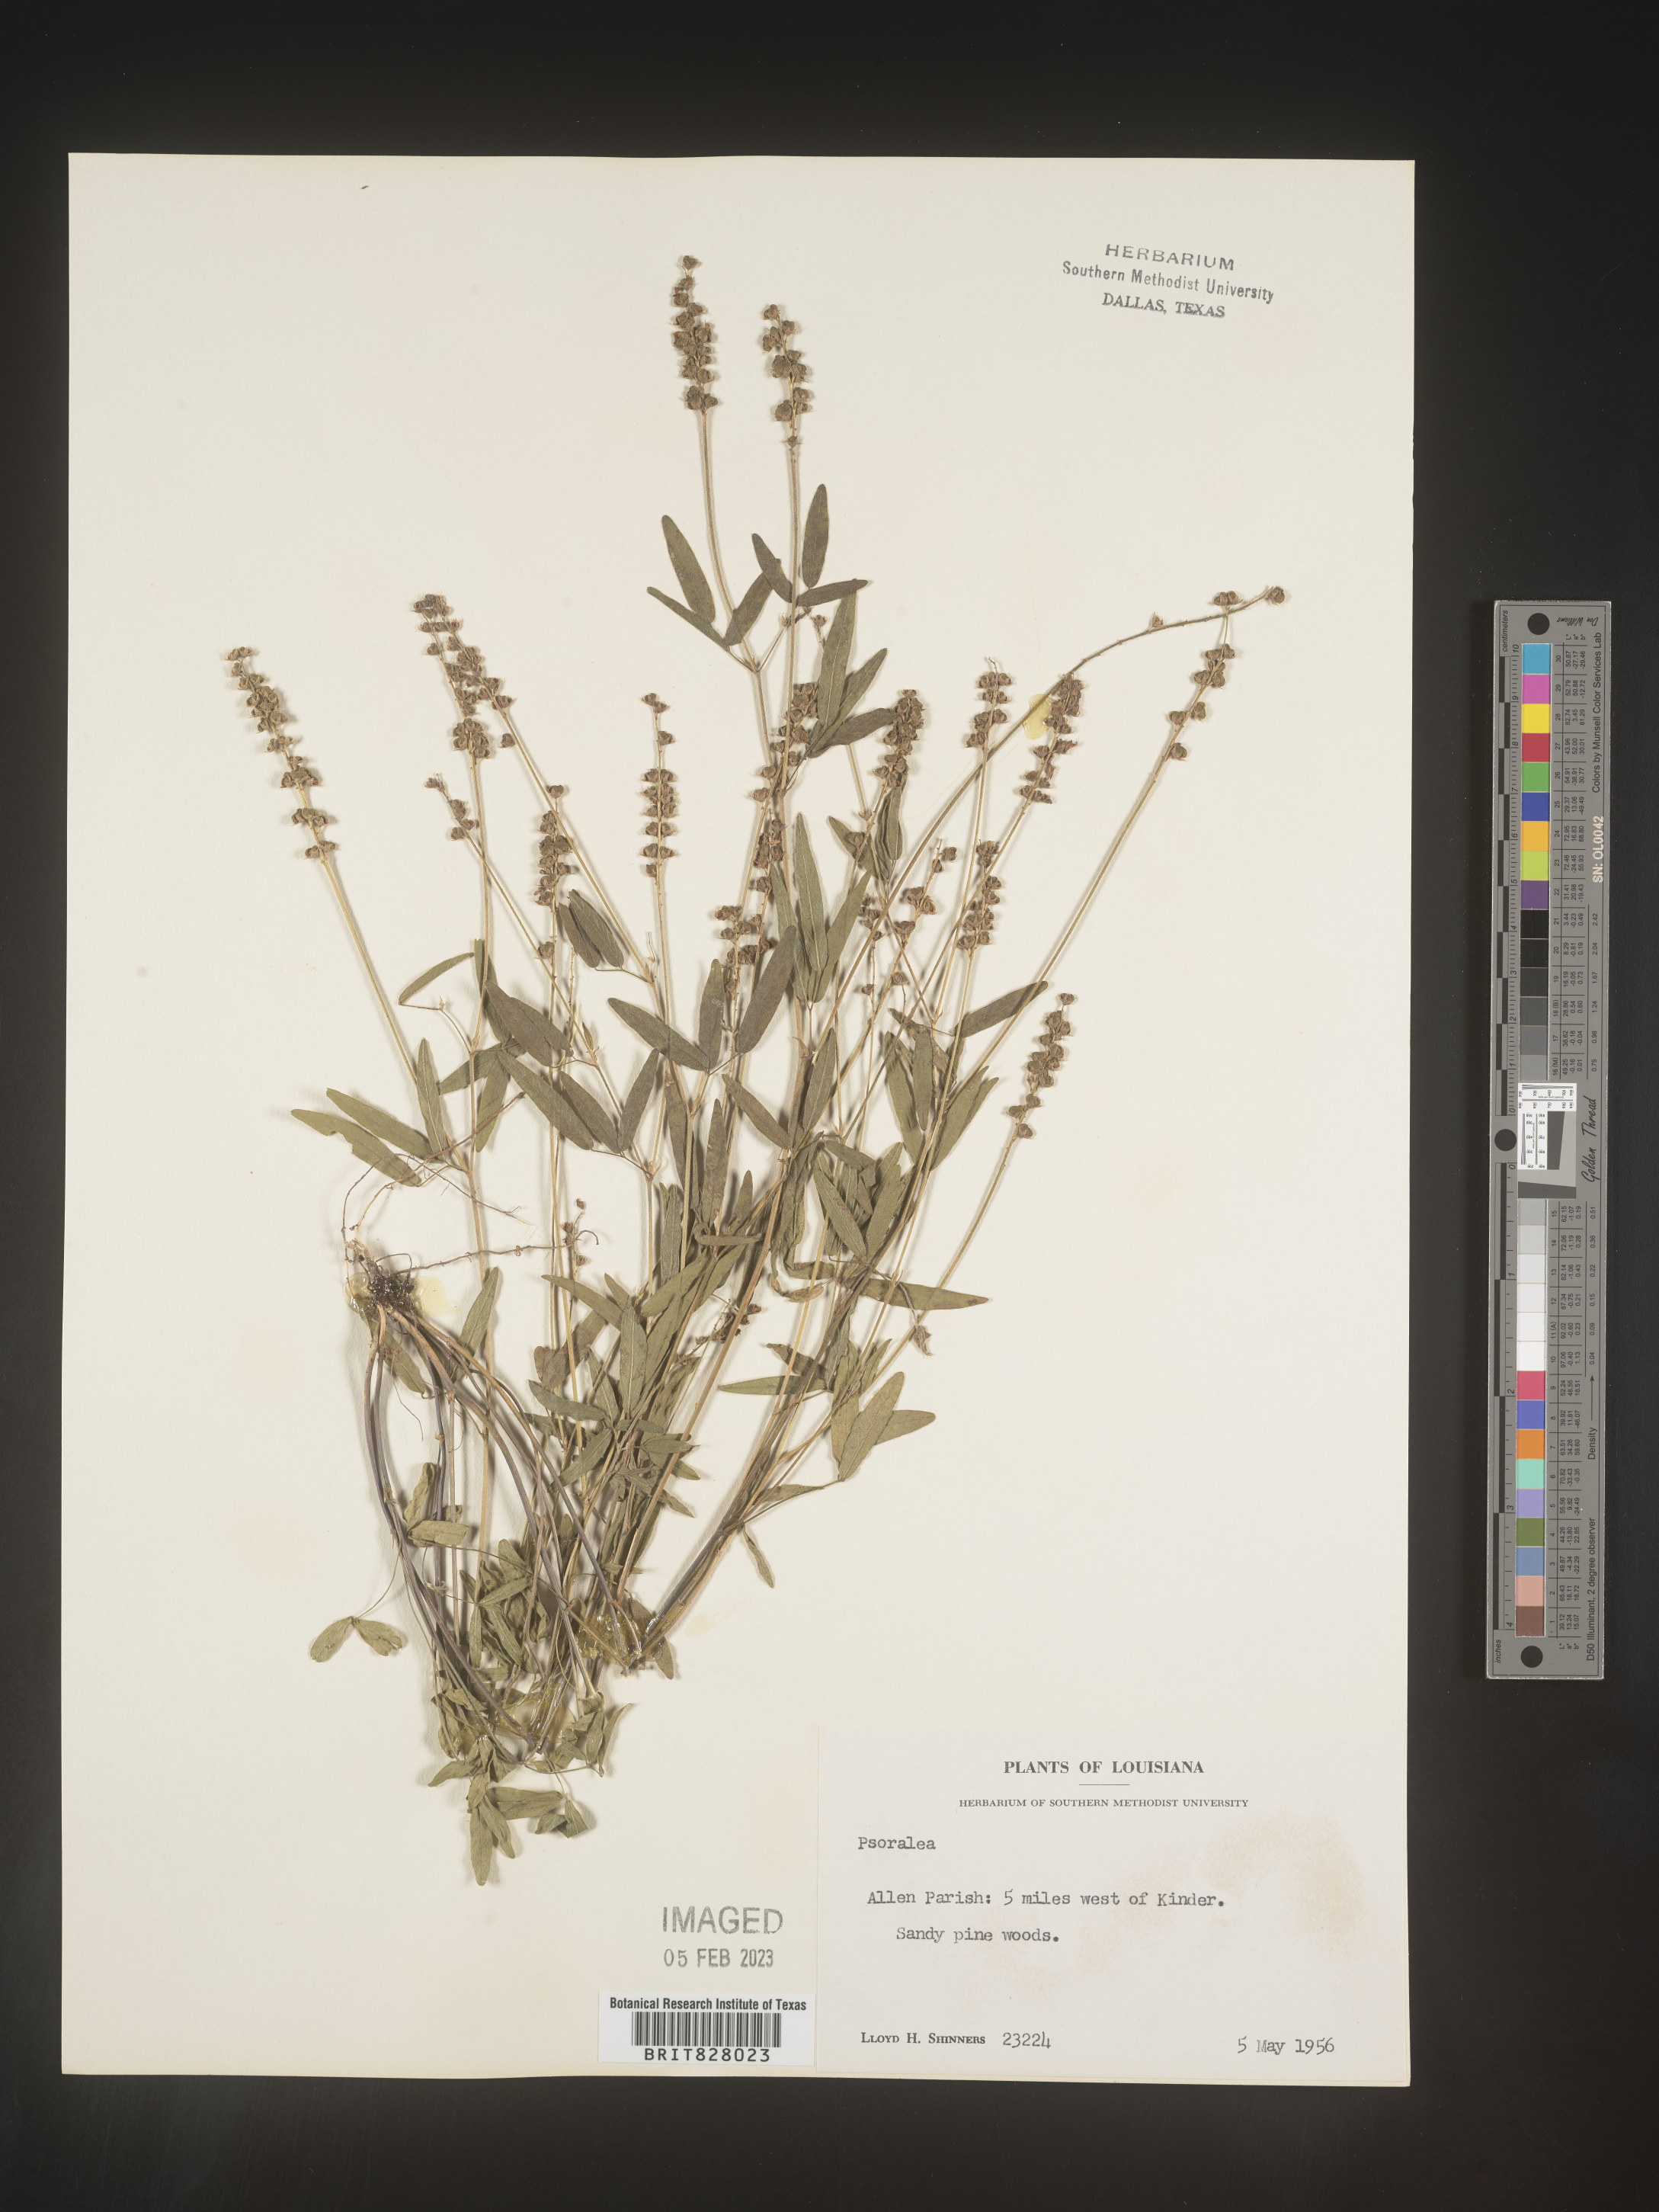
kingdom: Plantae
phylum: Tracheophyta
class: Magnoliopsida
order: Fabales
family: Fabaceae
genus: Orbexilum
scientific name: Orbexilum pedunculatum
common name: Sampson's snakeroot
